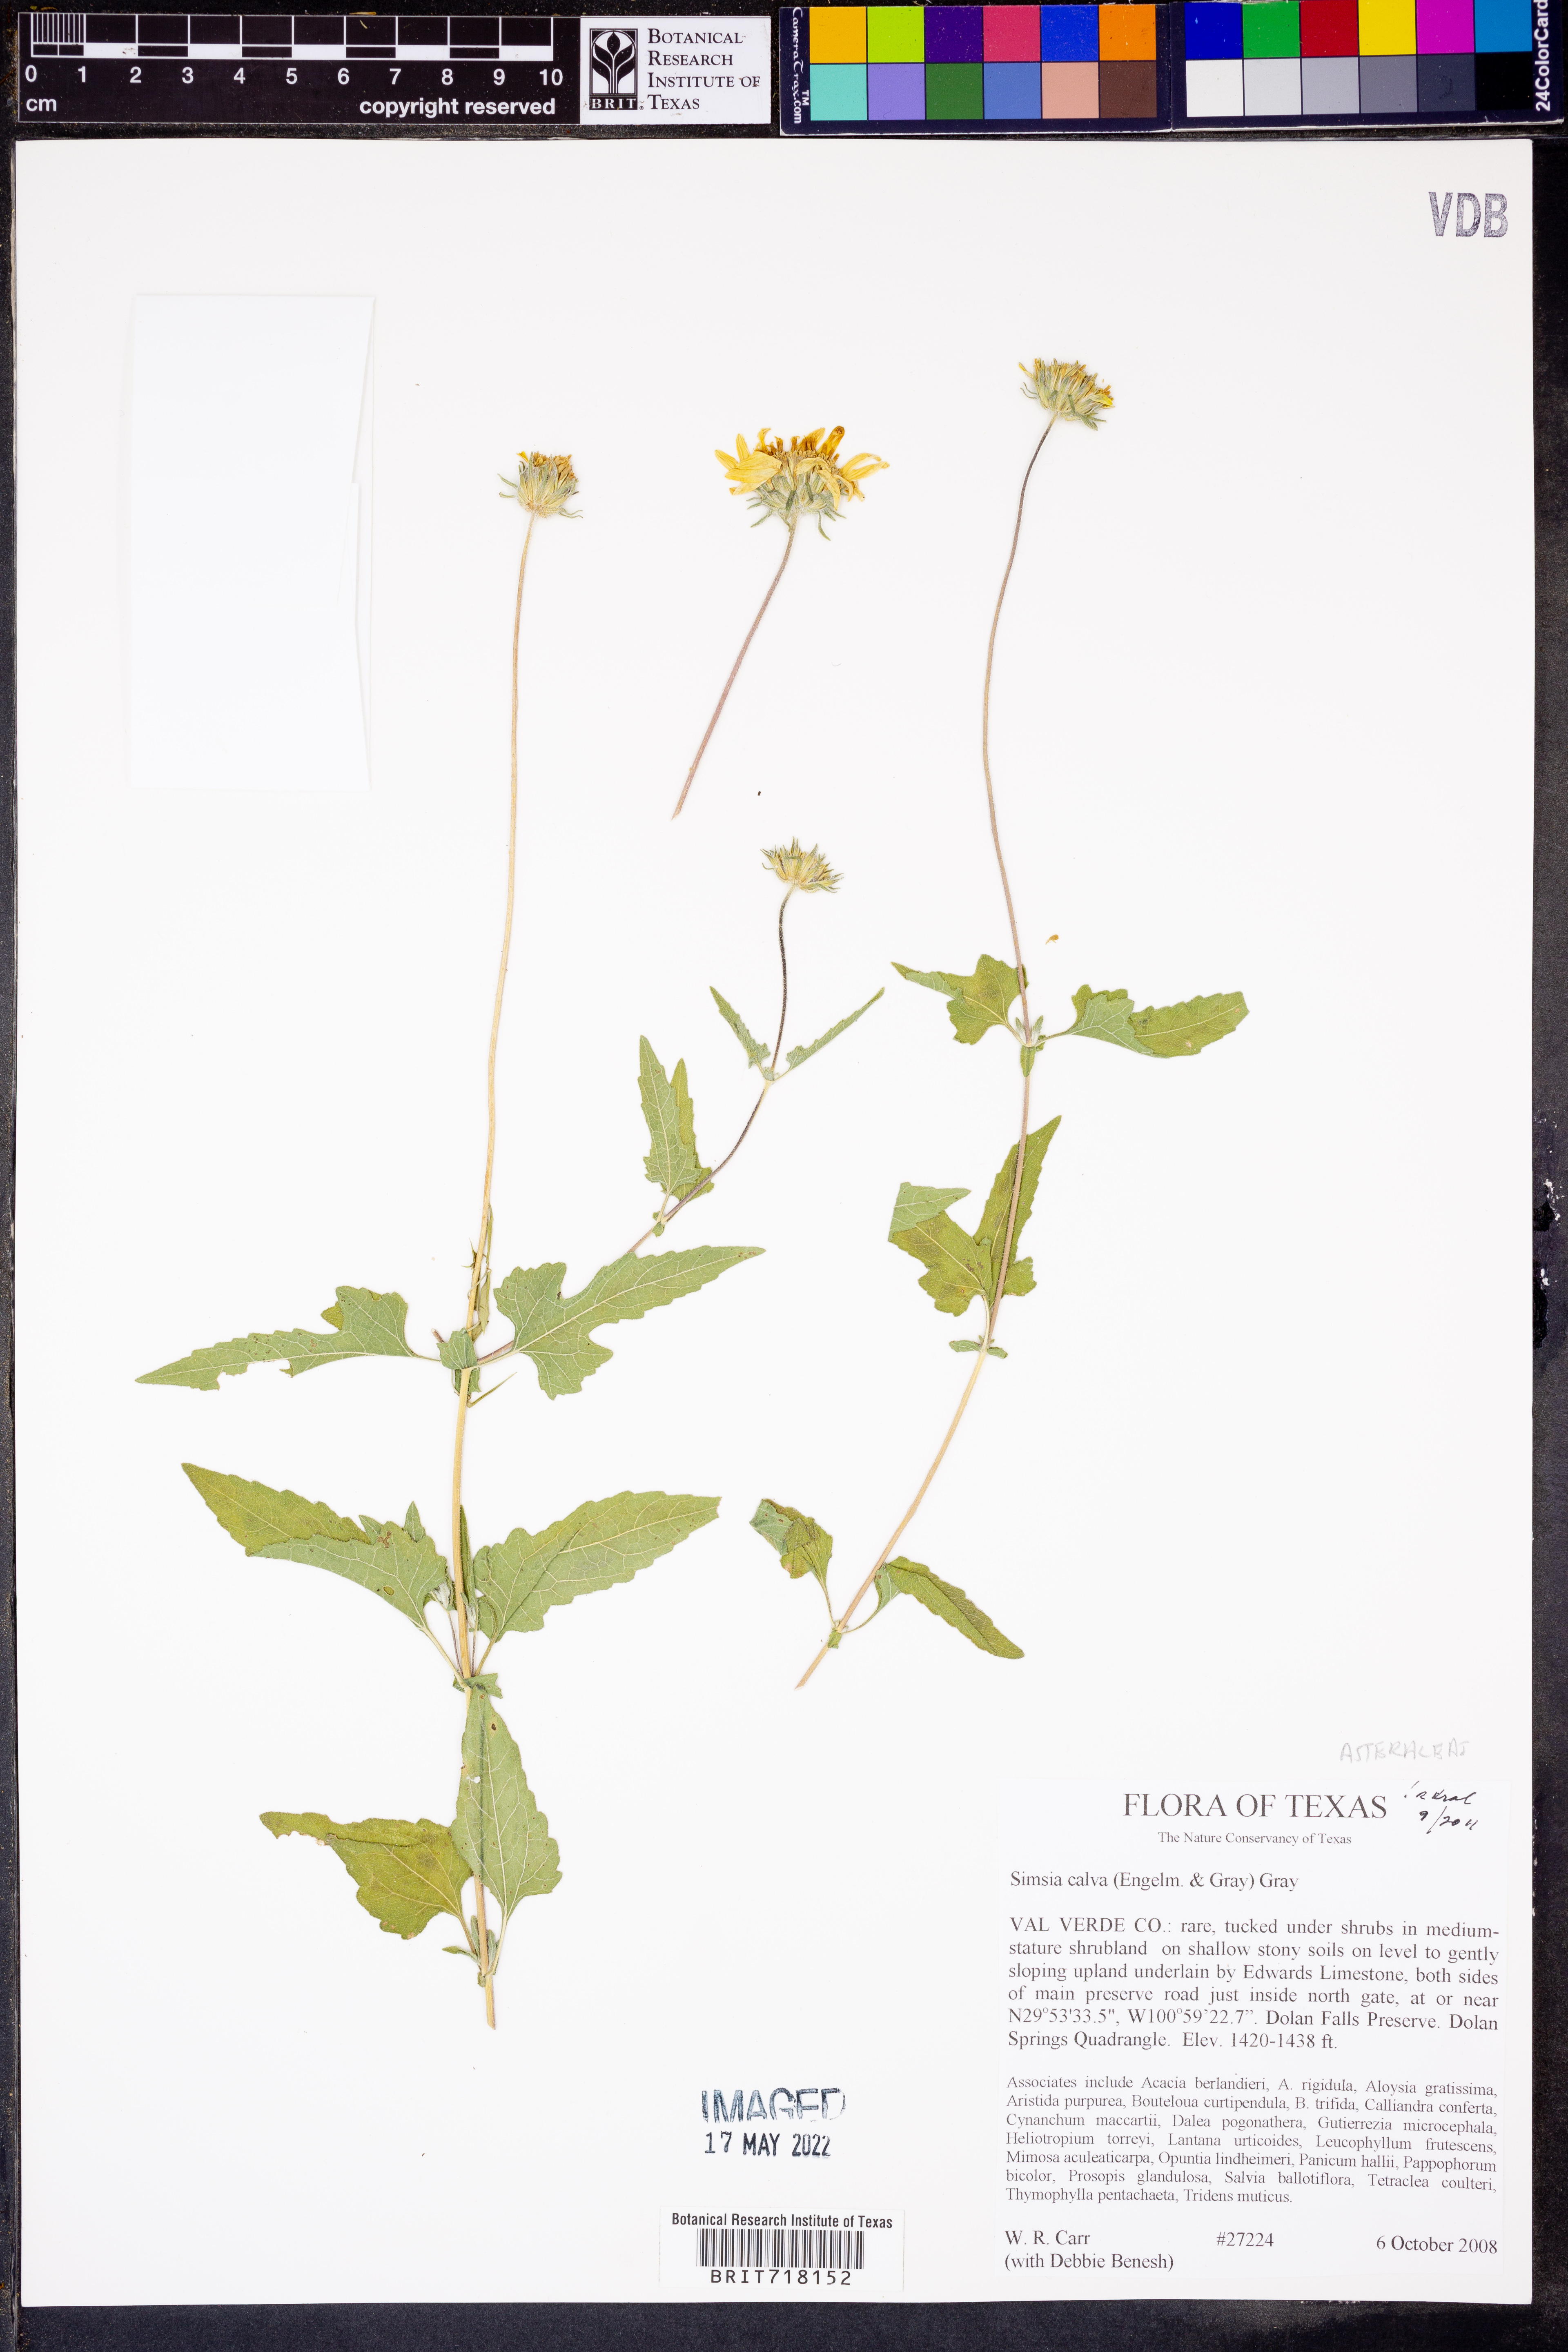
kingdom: Plantae
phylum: Tracheophyta
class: Magnoliopsida
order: Asterales
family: Asteraceae
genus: Simsia
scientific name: Simsia calva
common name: Awnless bush-sunflower
